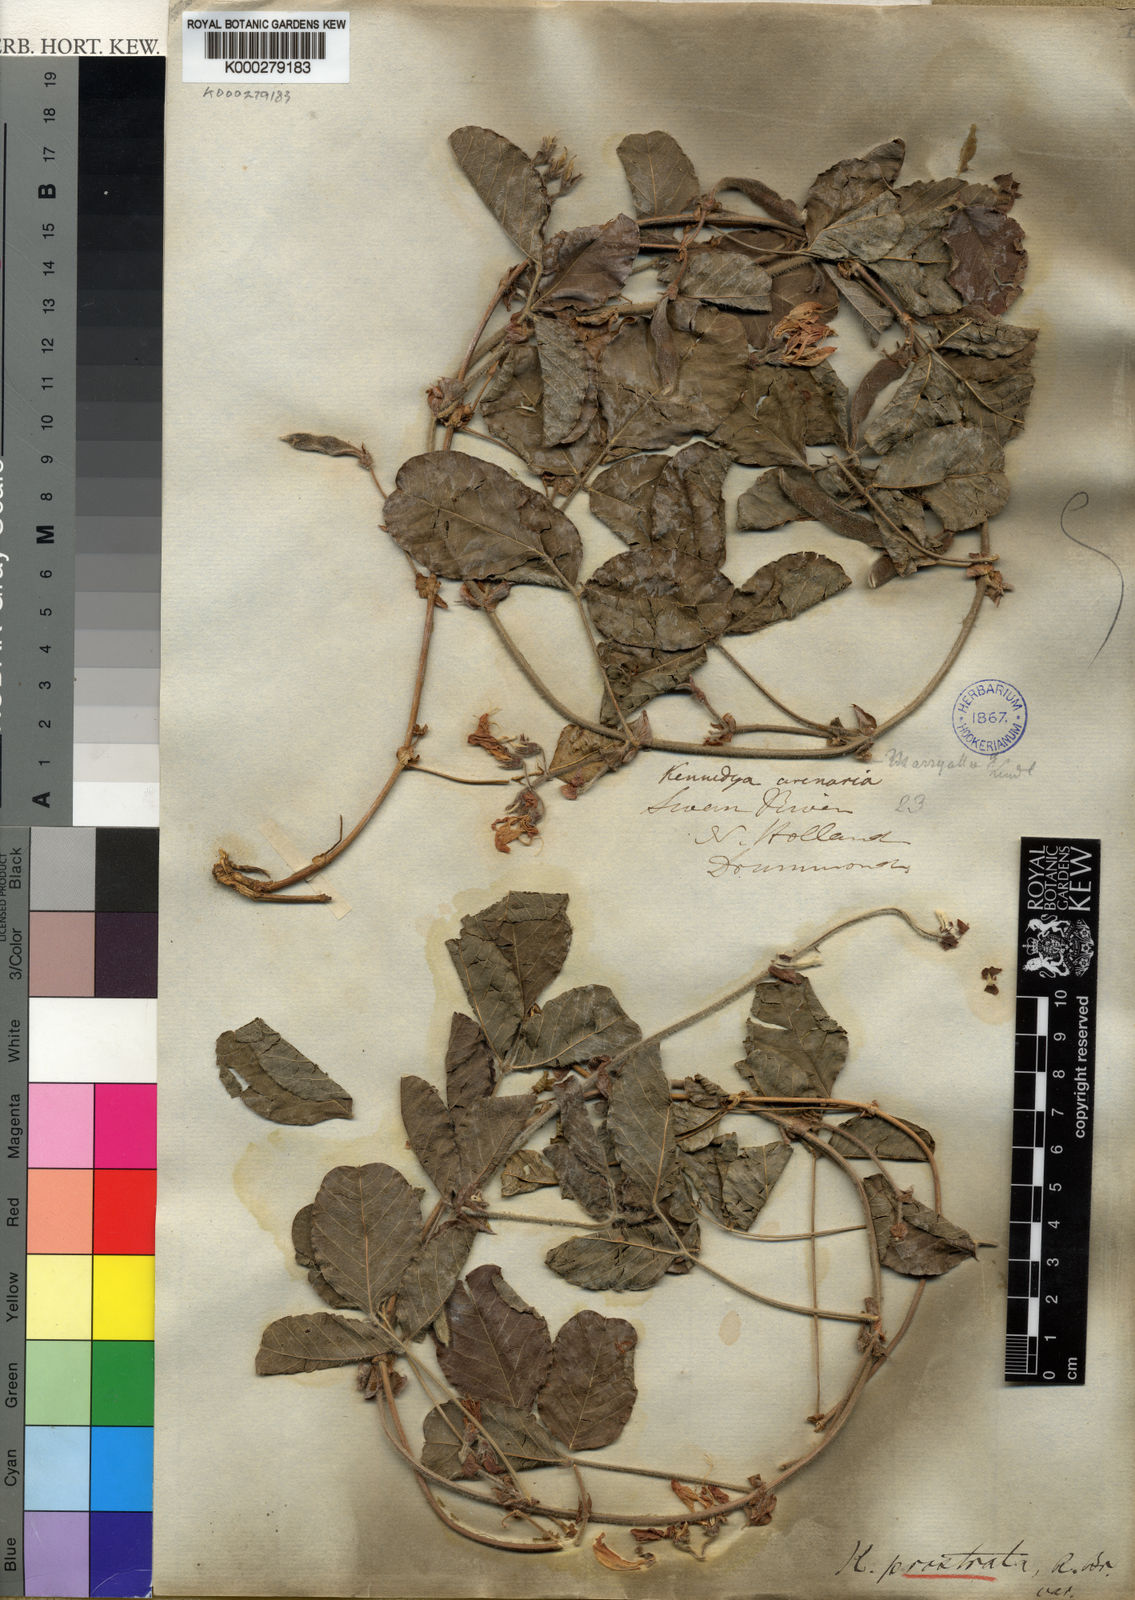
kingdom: Plantae
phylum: Tracheophyta
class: Magnoliopsida
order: Fabales
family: Fabaceae
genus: Kennedia
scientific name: Kennedia prostrata
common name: Running-postman
